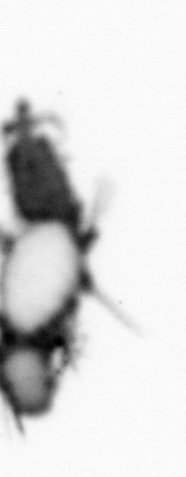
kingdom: Animalia
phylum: Annelida
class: Polychaeta
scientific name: Polychaeta
